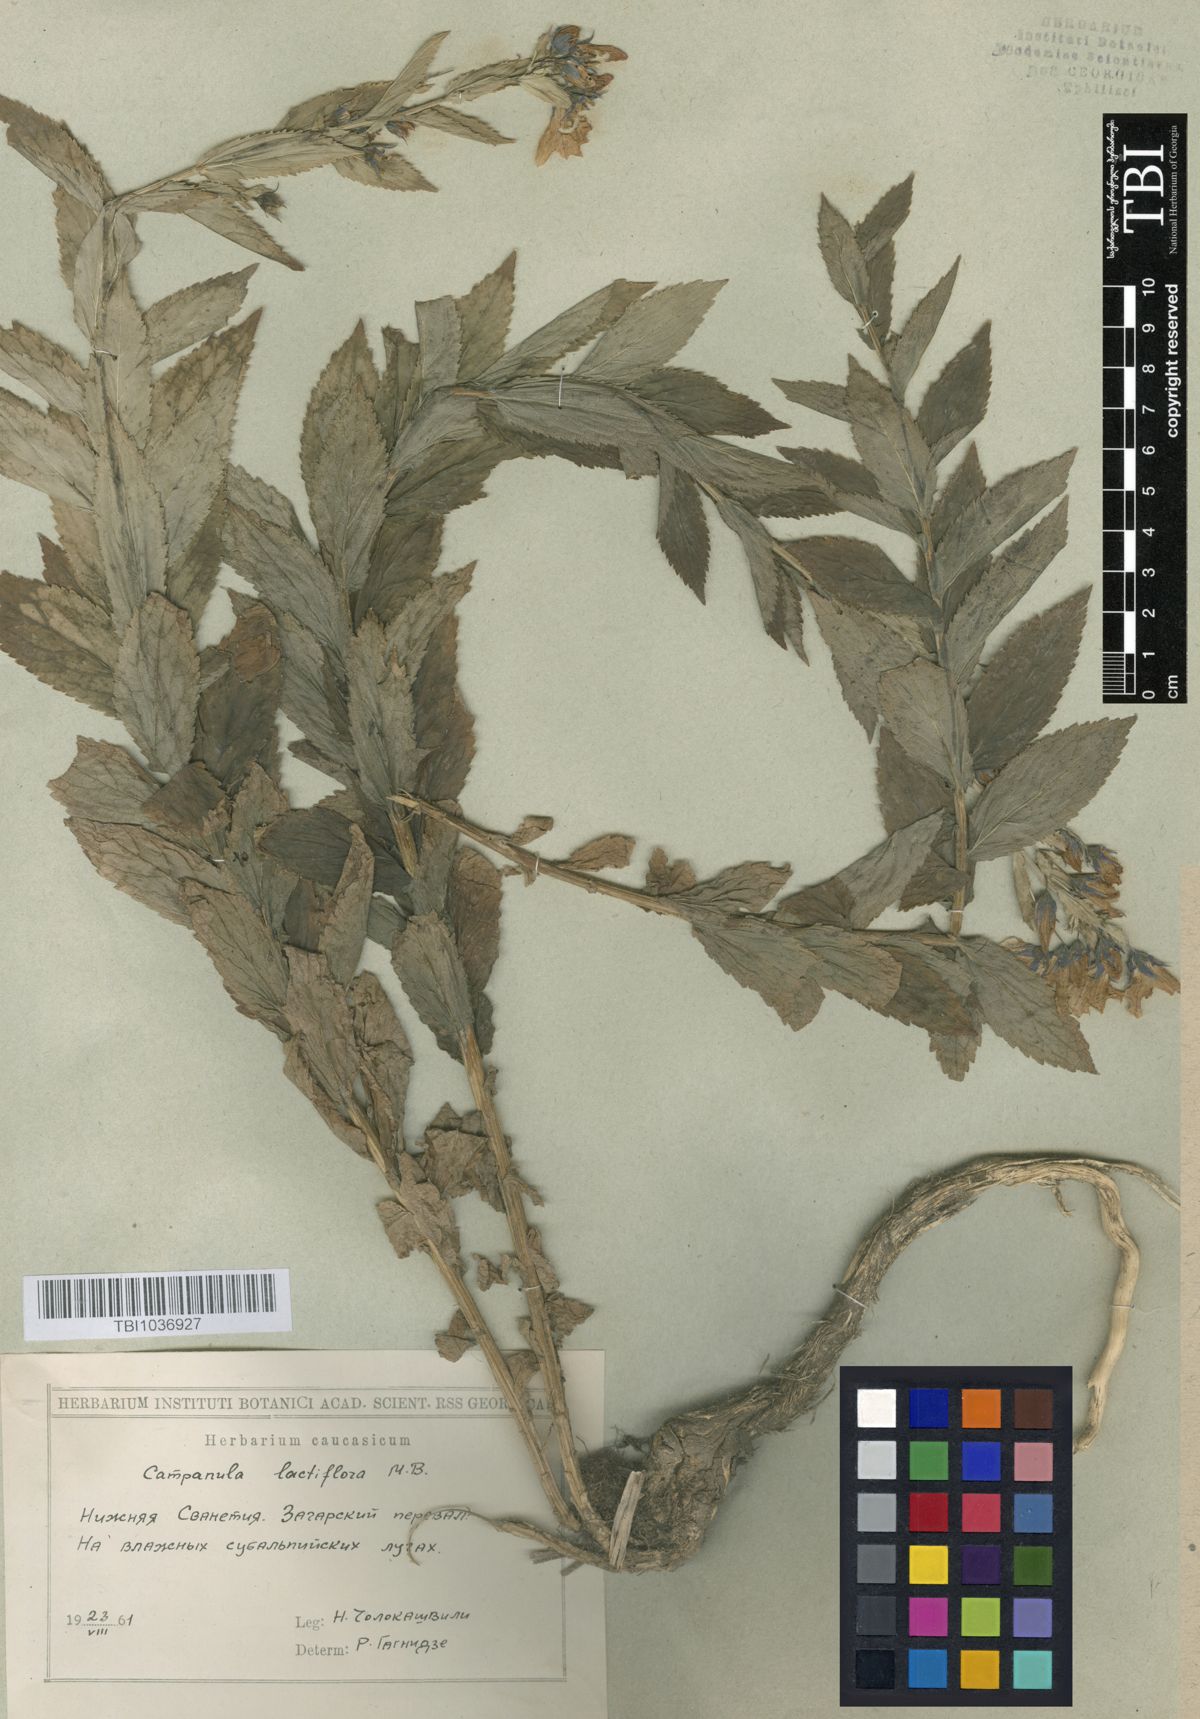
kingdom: Plantae
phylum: Tracheophyta
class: Magnoliopsida
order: Asterales
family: Campanulaceae
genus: Campanula
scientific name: Campanula lactiflora
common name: Milky bellflower
